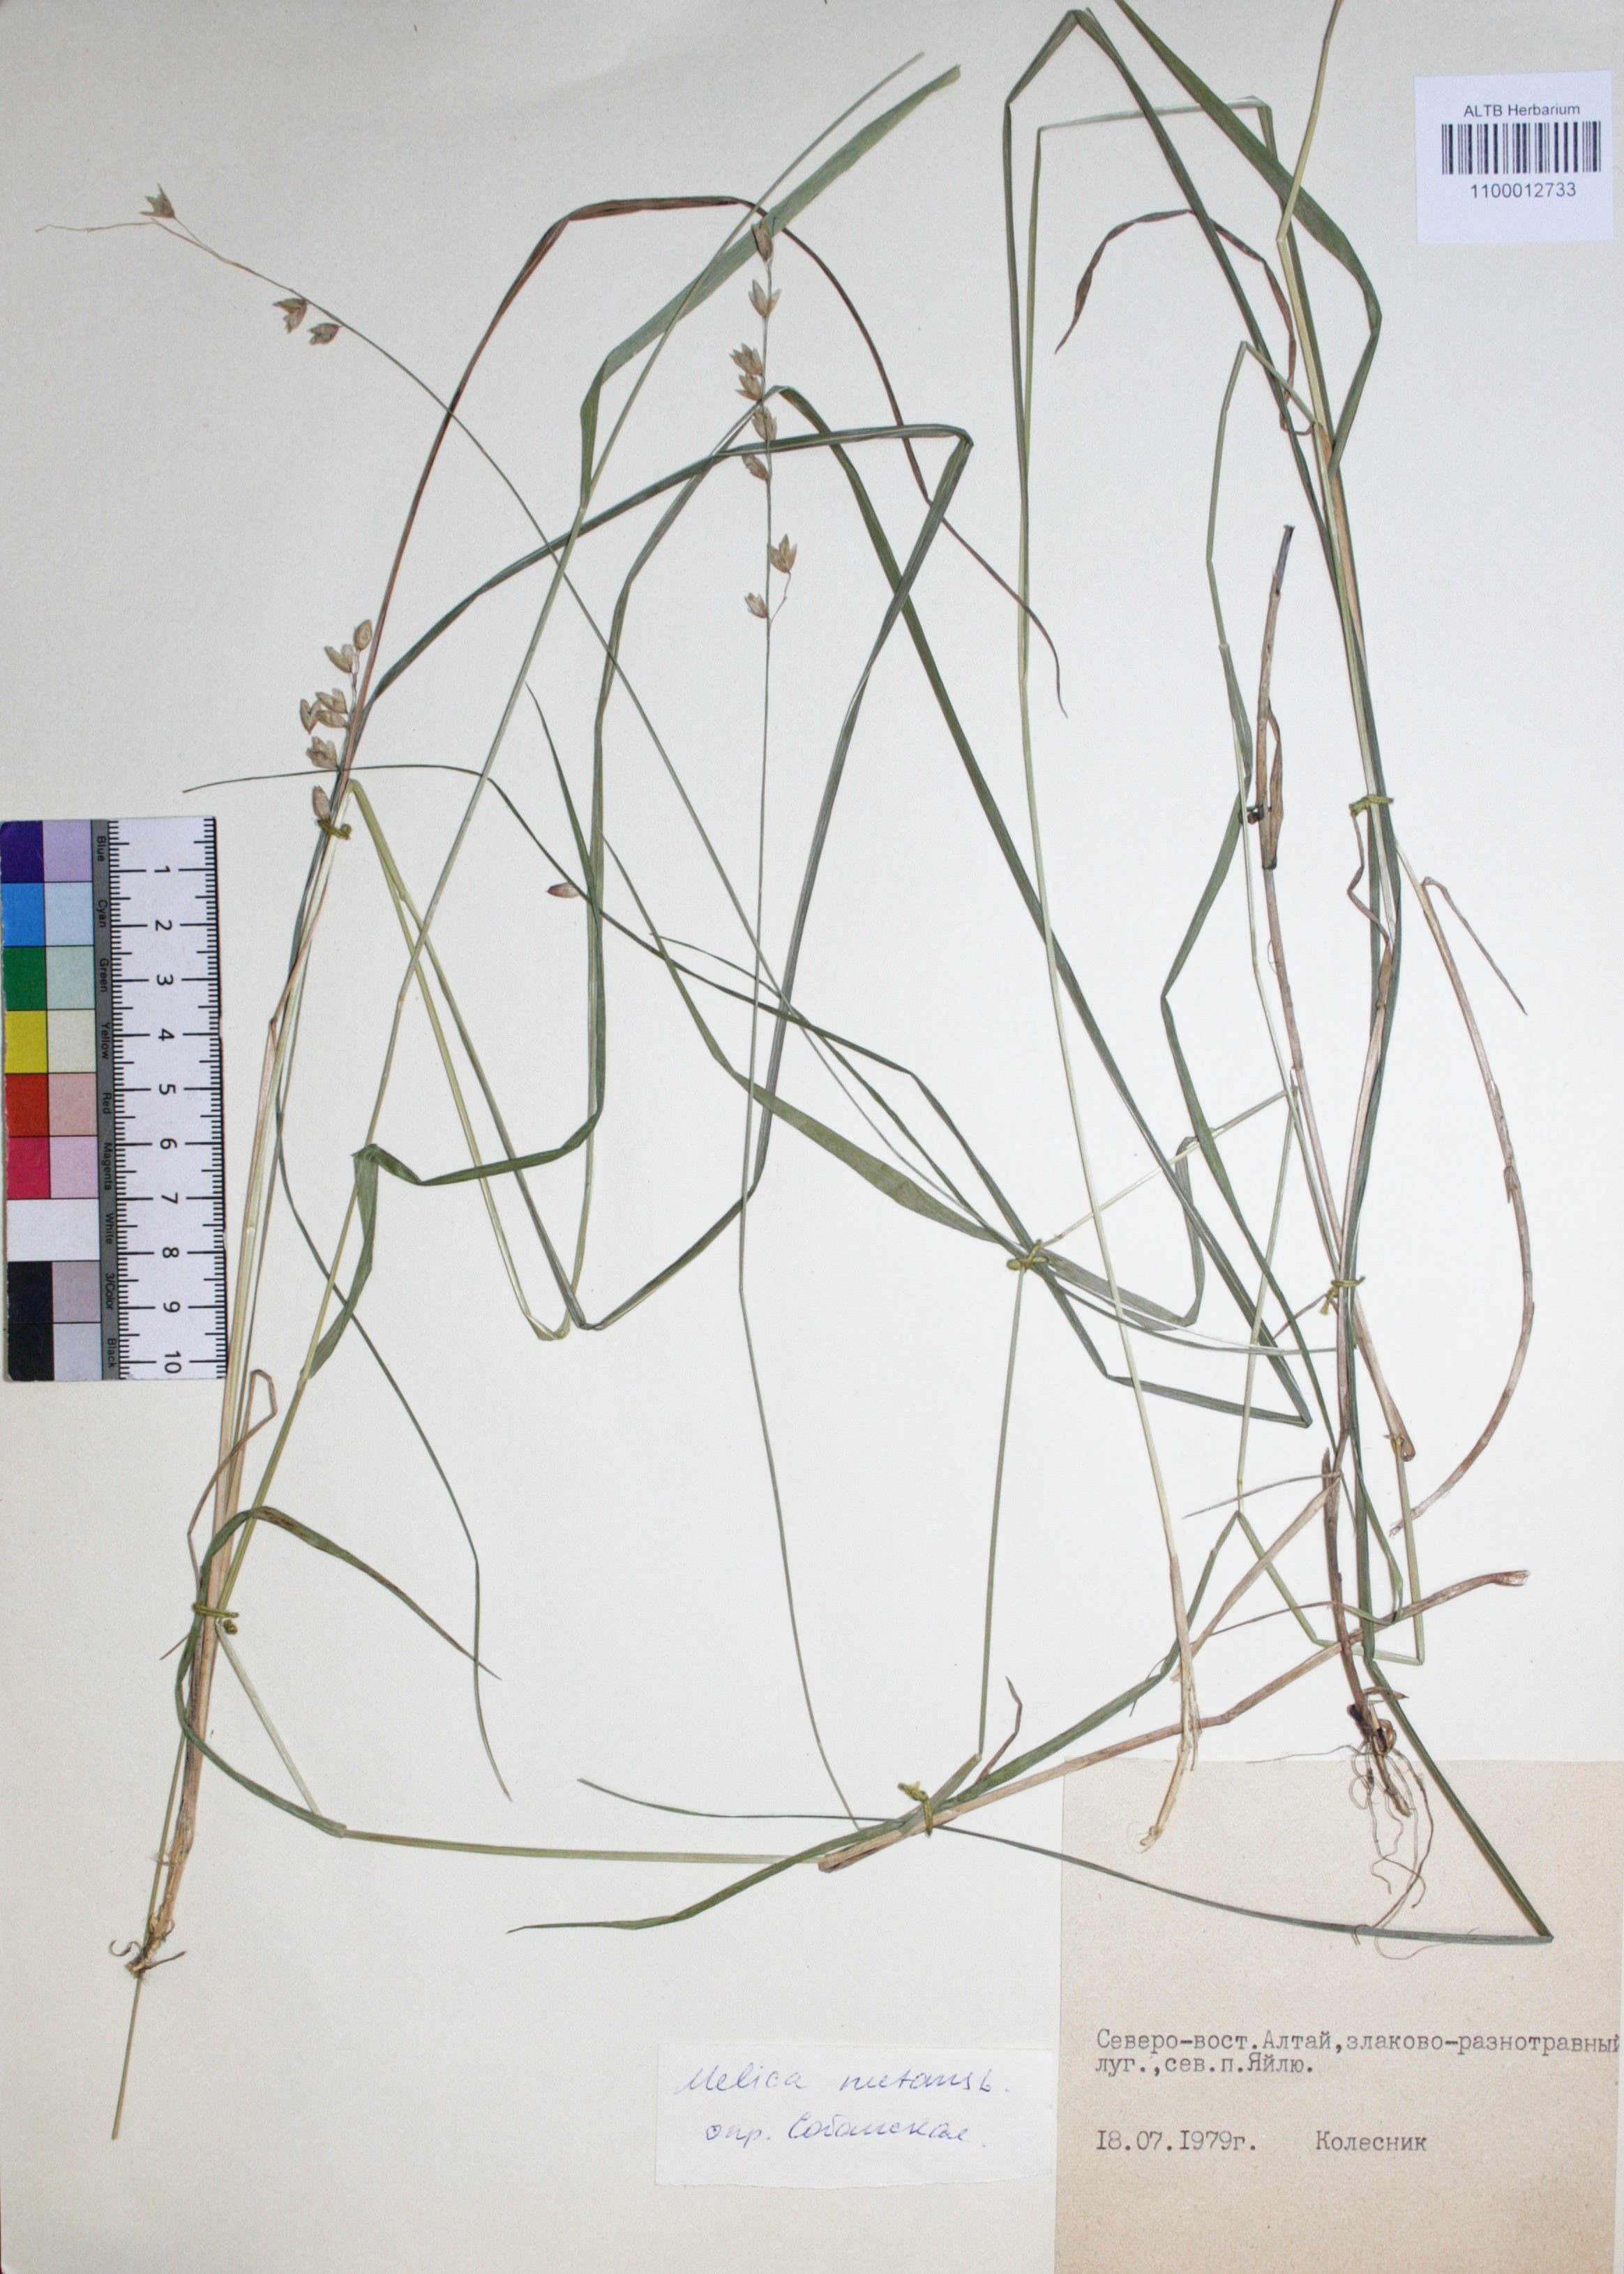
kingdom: Plantae
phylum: Tracheophyta
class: Liliopsida
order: Poales
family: Poaceae
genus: Melica
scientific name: Melica nutans
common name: Mountain melick
